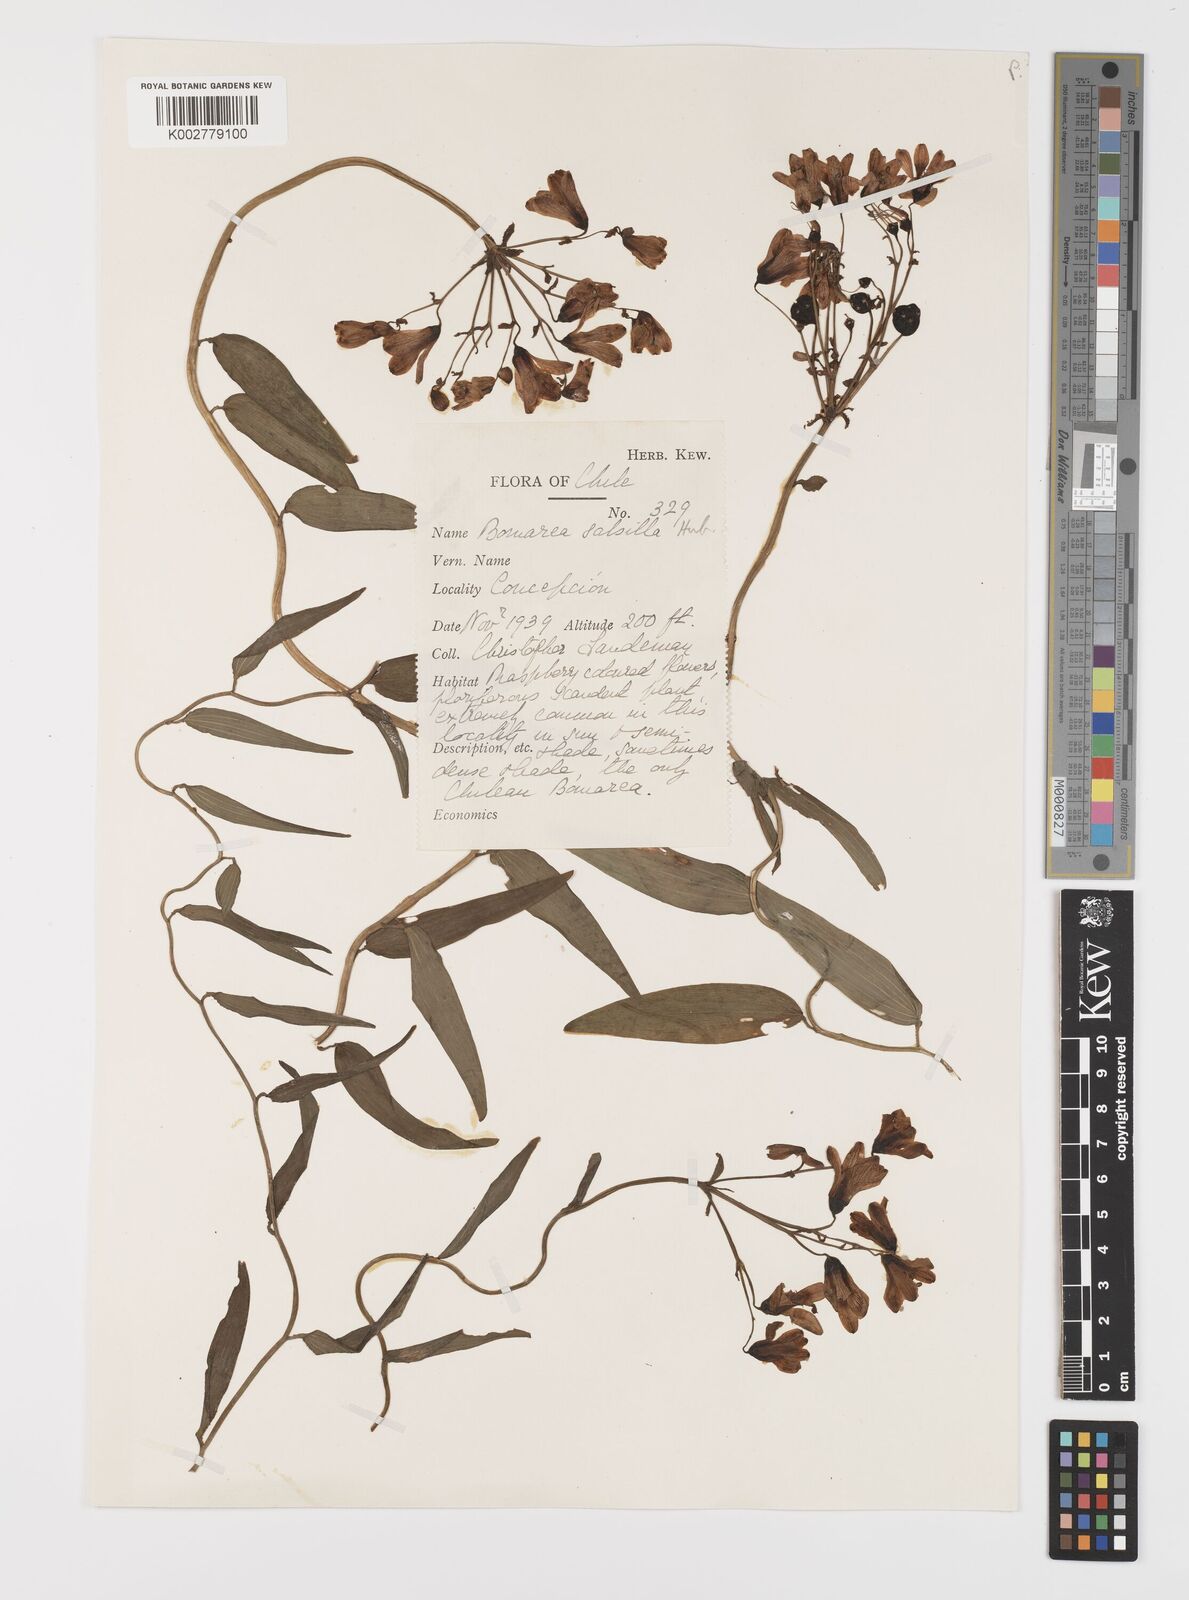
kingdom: Plantae
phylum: Tracheophyta
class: Liliopsida
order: Liliales
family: Alstroemeriaceae
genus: Bomarea
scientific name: Bomarea edulis
